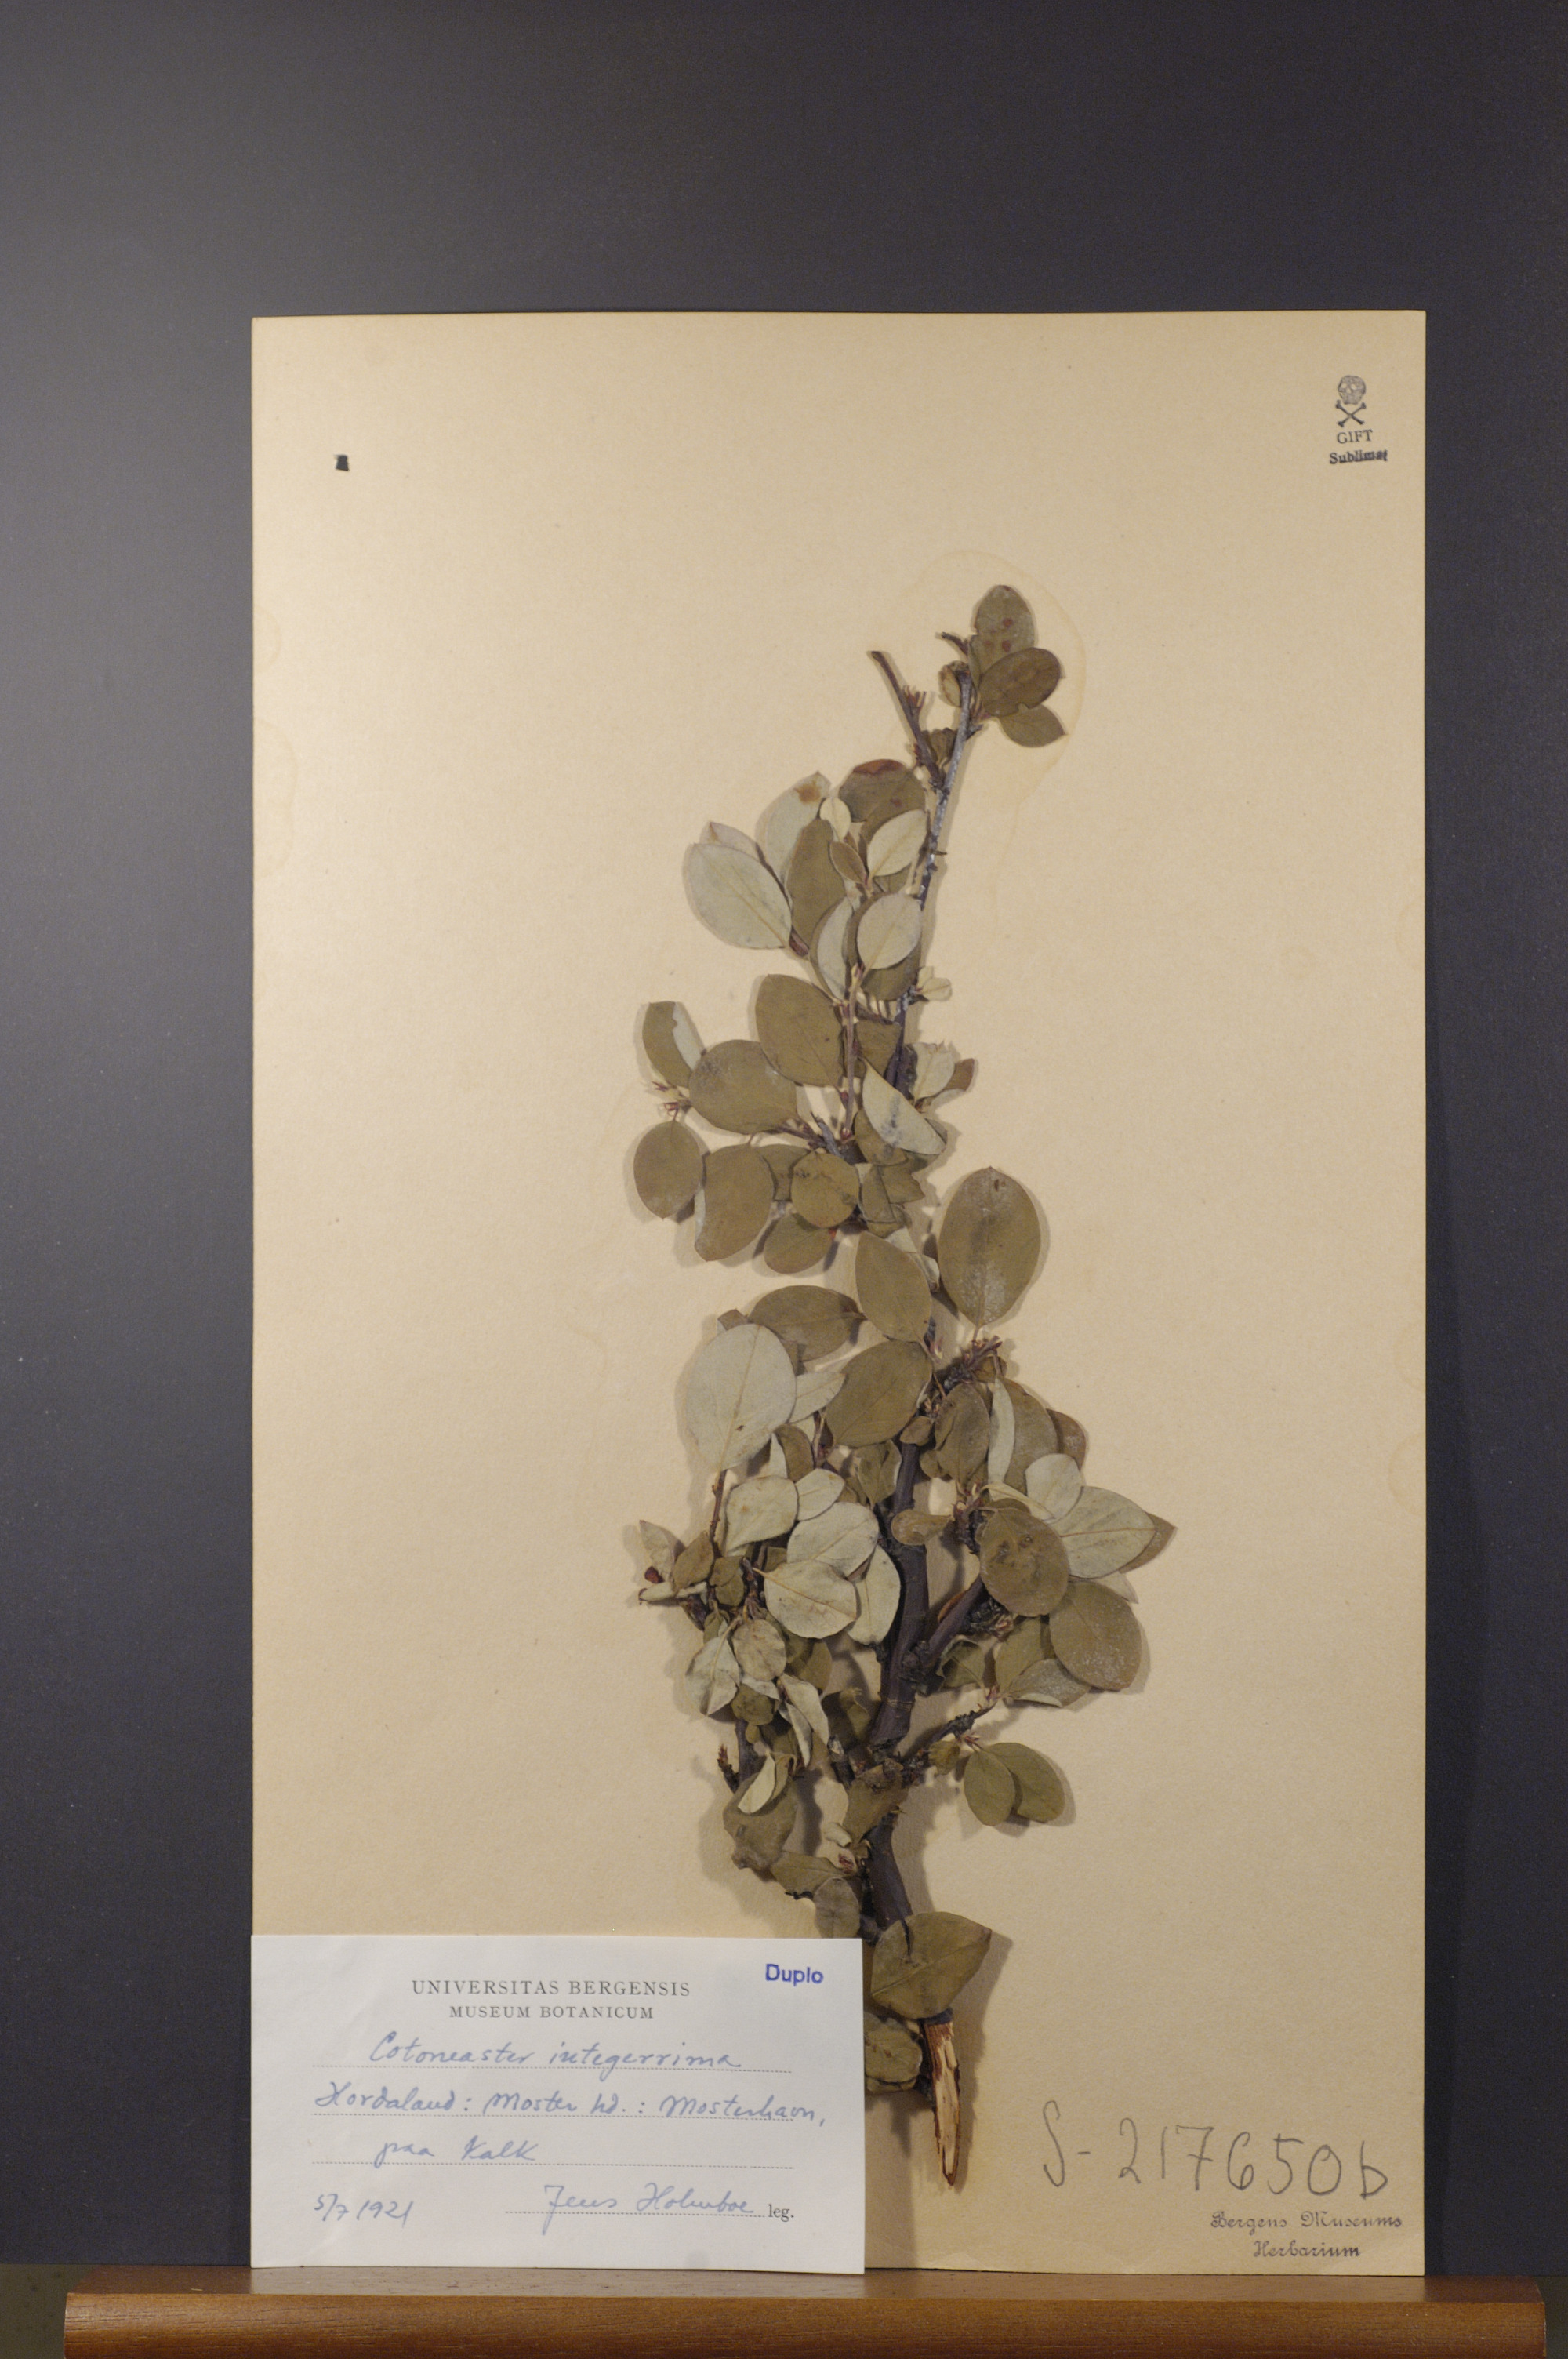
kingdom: Plantae
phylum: Tracheophyta
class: Magnoliopsida
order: Rosales
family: Rosaceae
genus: Cotoneaster
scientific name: Cotoneaster integerrimus
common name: Wild cotoneaster
